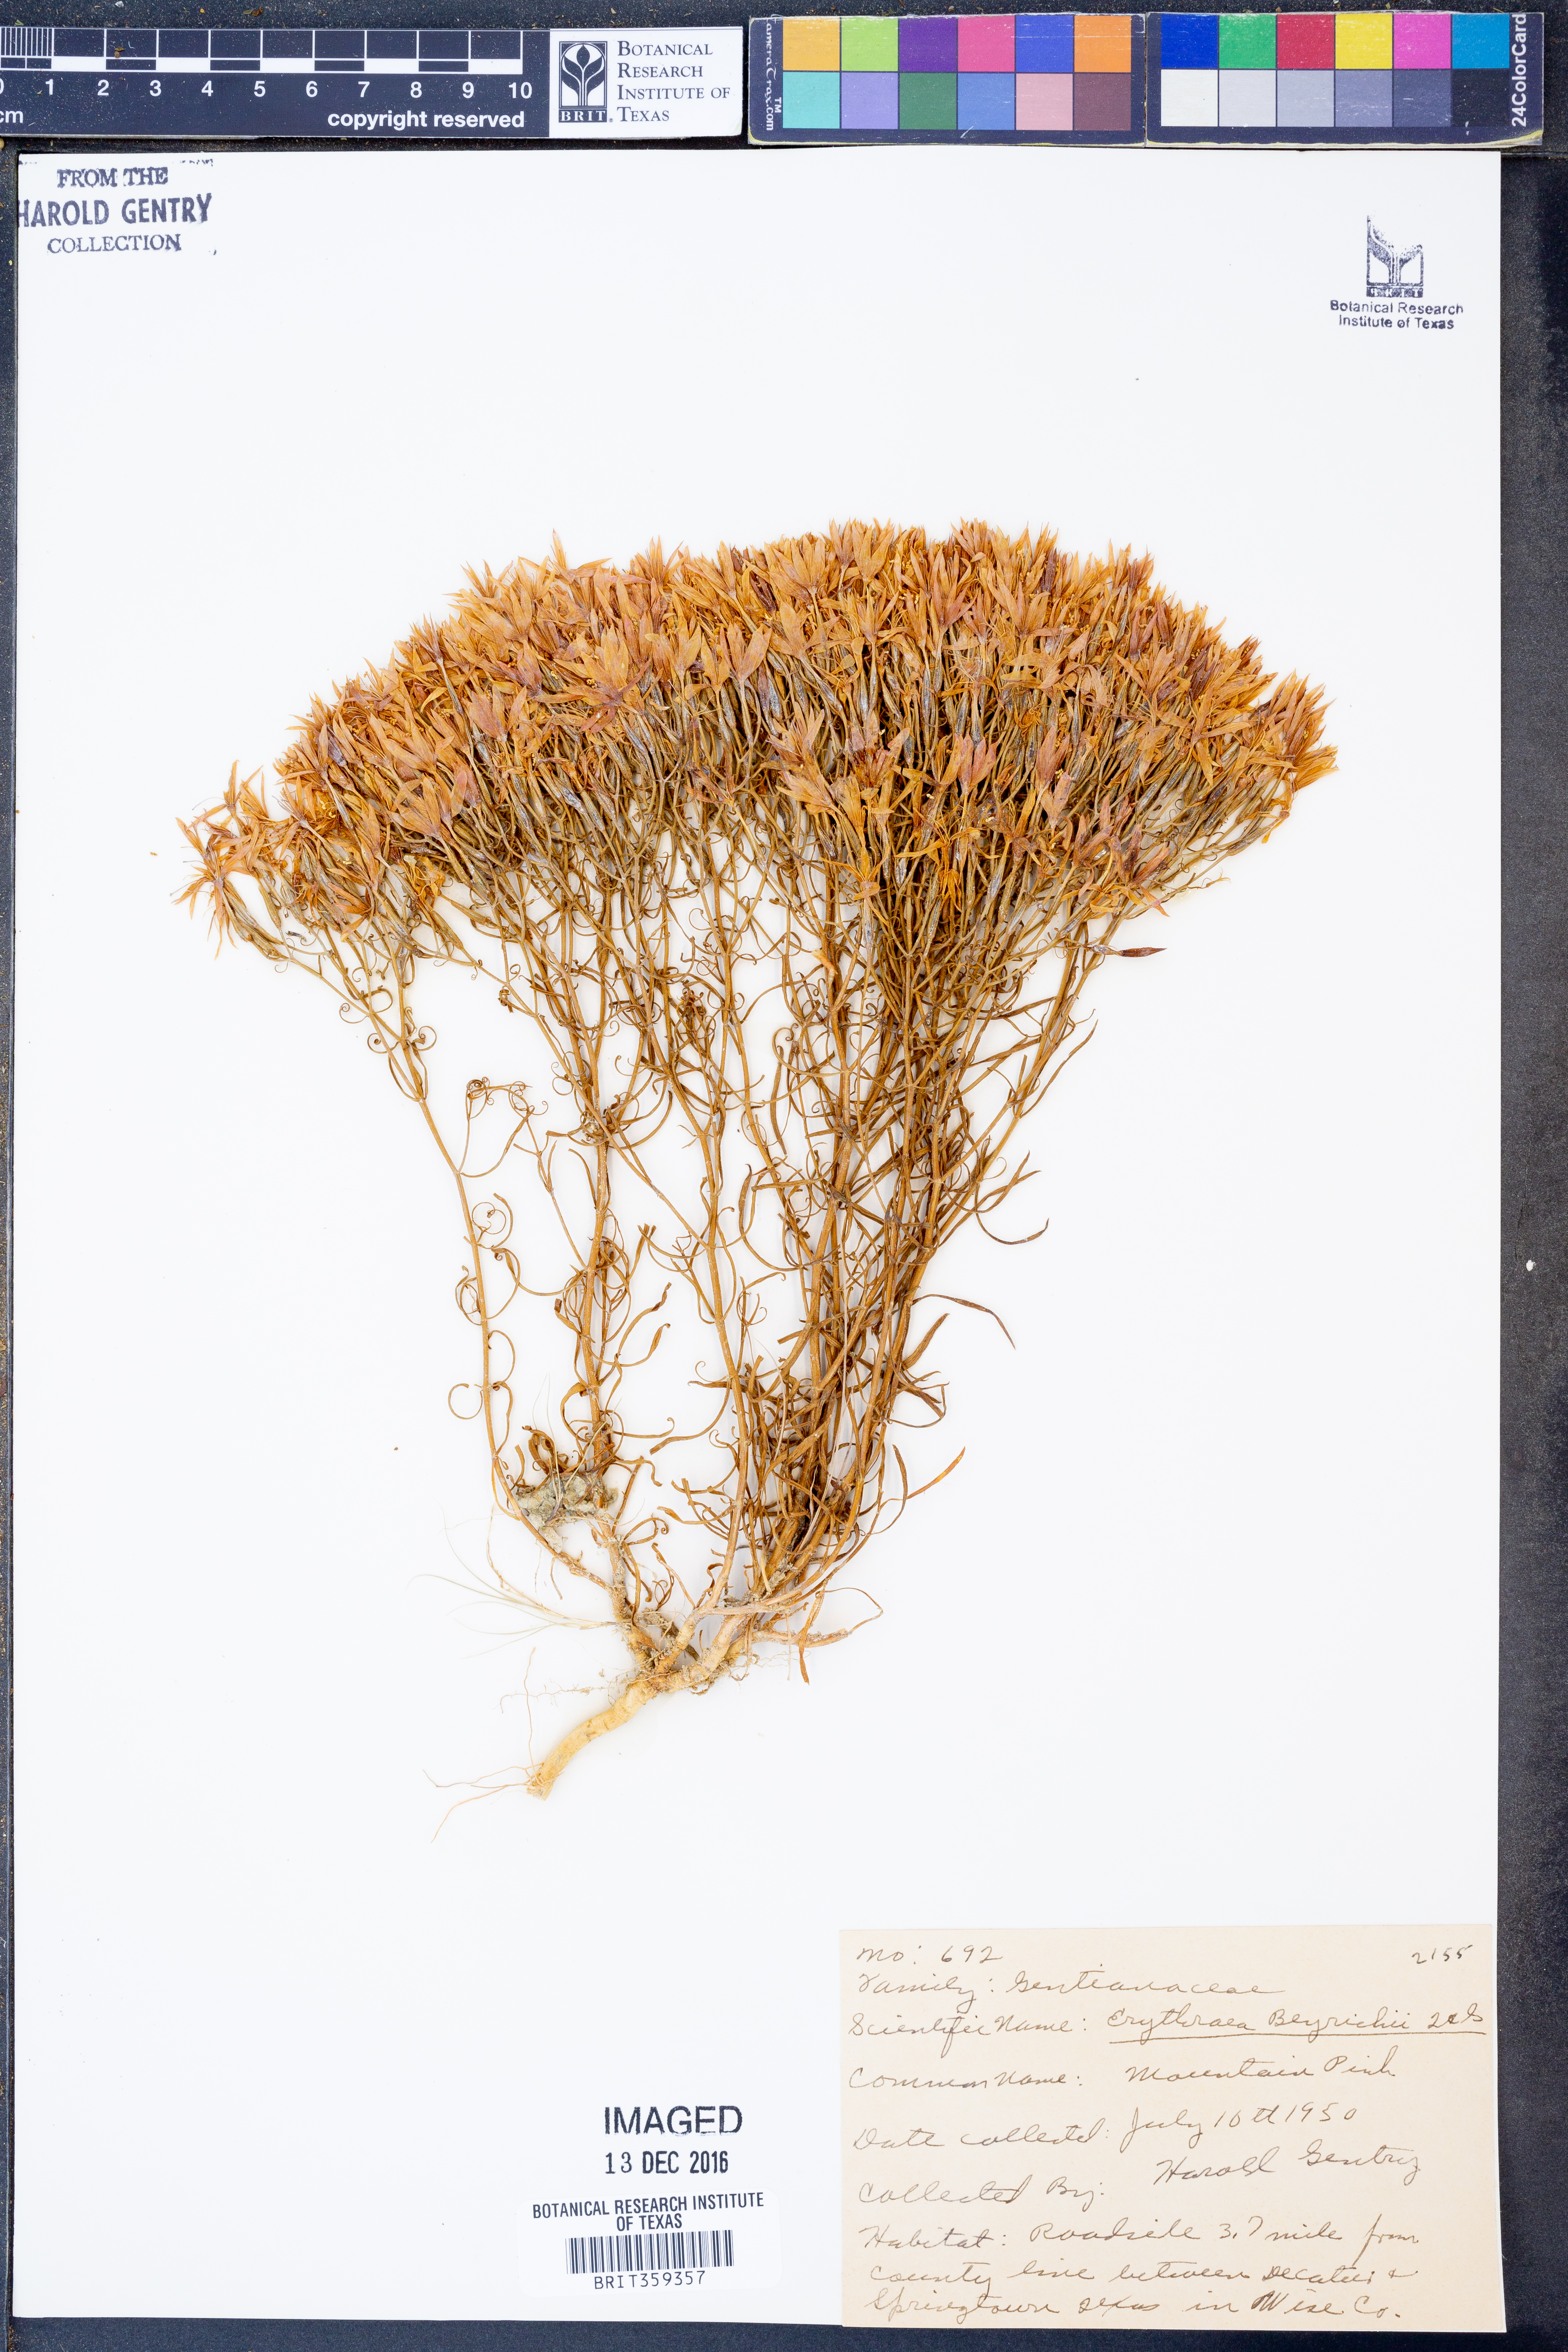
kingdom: Plantae
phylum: Tracheophyta
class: Magnoliopsida
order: Gentianales
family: Gentianaceae
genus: Zeltnera
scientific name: Zeltnera beyrichii
